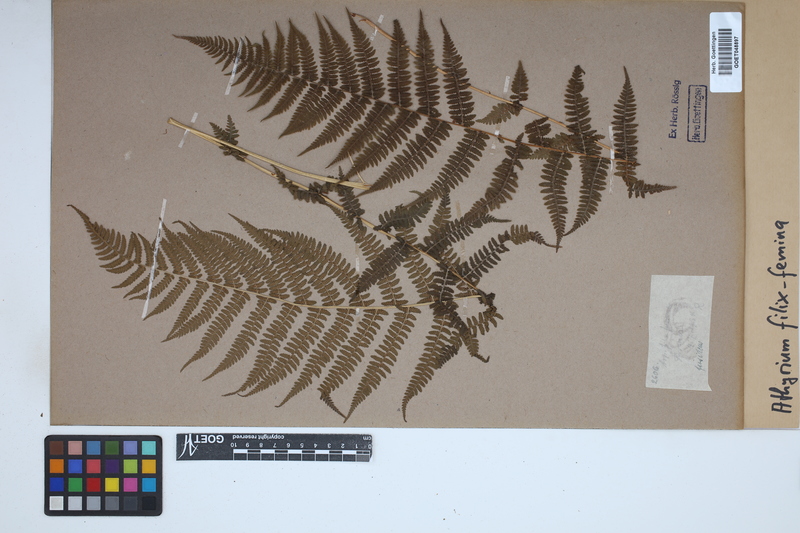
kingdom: Plantae
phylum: Tracheophyta
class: Polypodiopsida
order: Polypodiales
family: Athyriaceae
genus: Athyrium
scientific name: Athyrium filix-femina
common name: Lady fern
